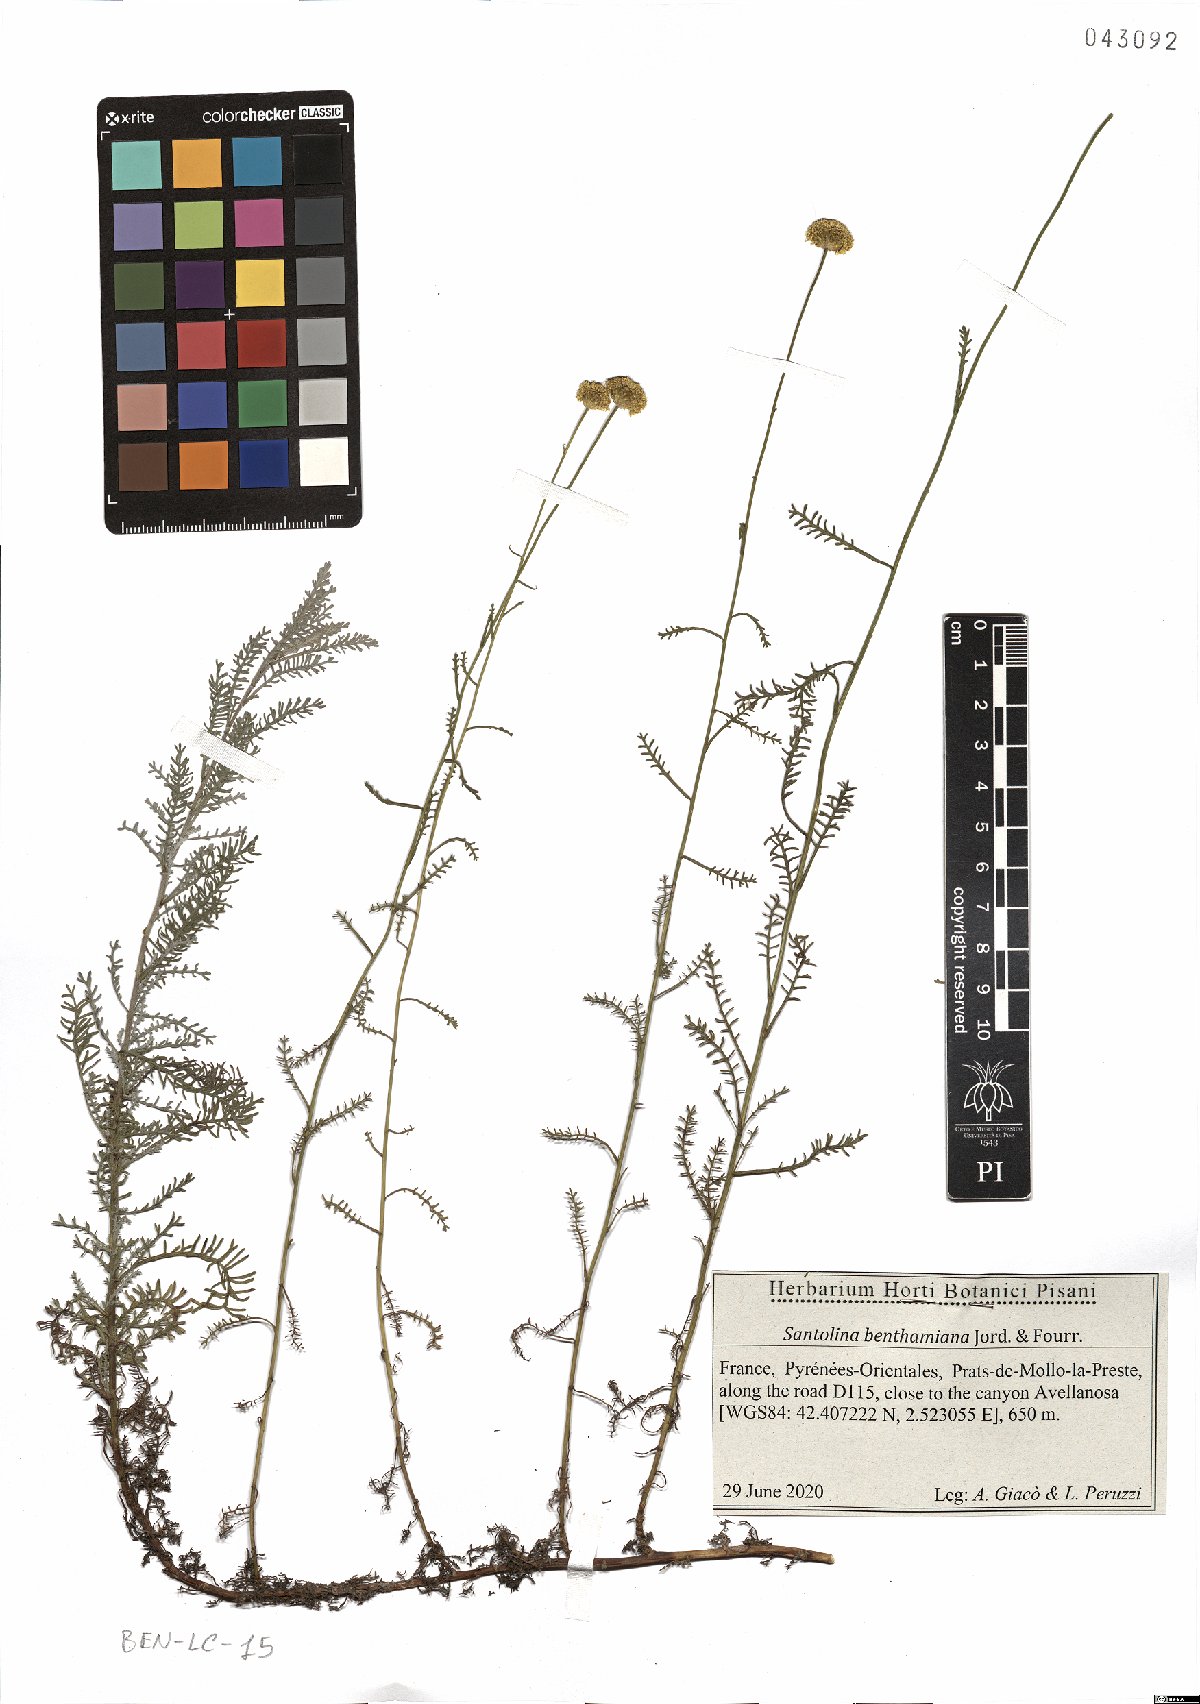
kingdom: Plantae
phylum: Tracheophyta
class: Magnoliopsida
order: Asterales
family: Asteraceae
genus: Santolina
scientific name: Santolina benthamiana
